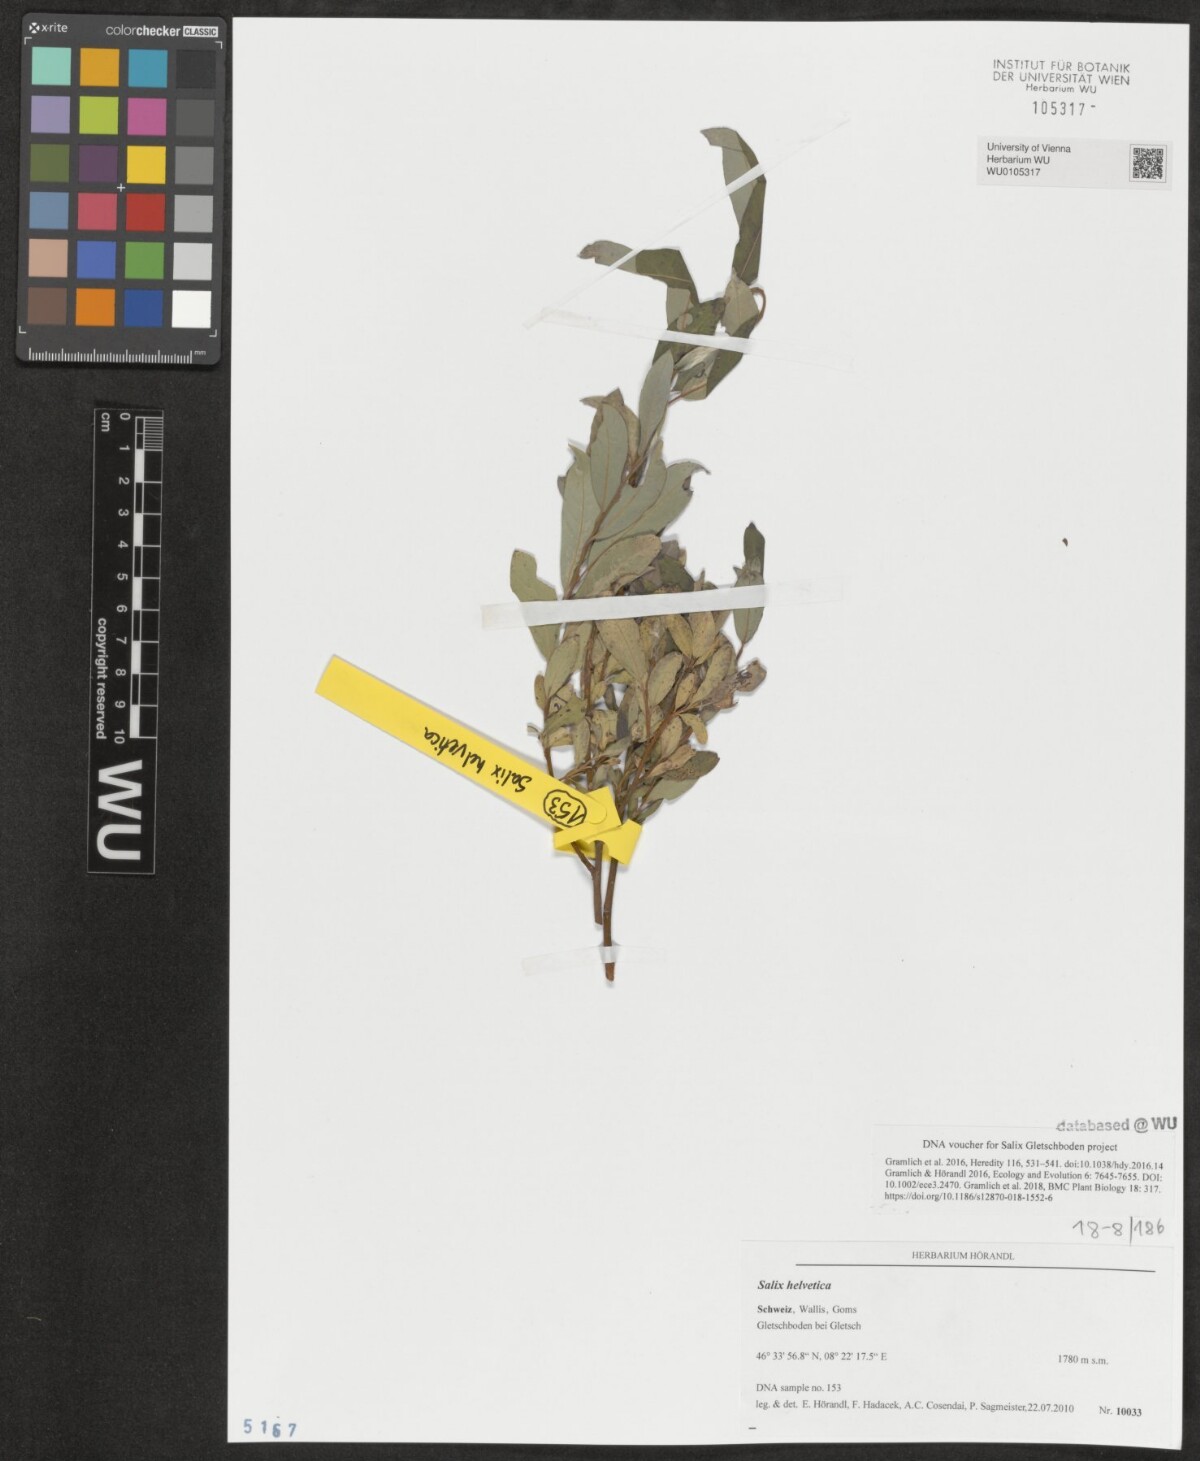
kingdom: Plantae
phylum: Tracheophyta
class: Magnoliopsida
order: Malpighiales
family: Salicaceae
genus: Salix
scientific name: Salix helvetica
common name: Swiss willow
